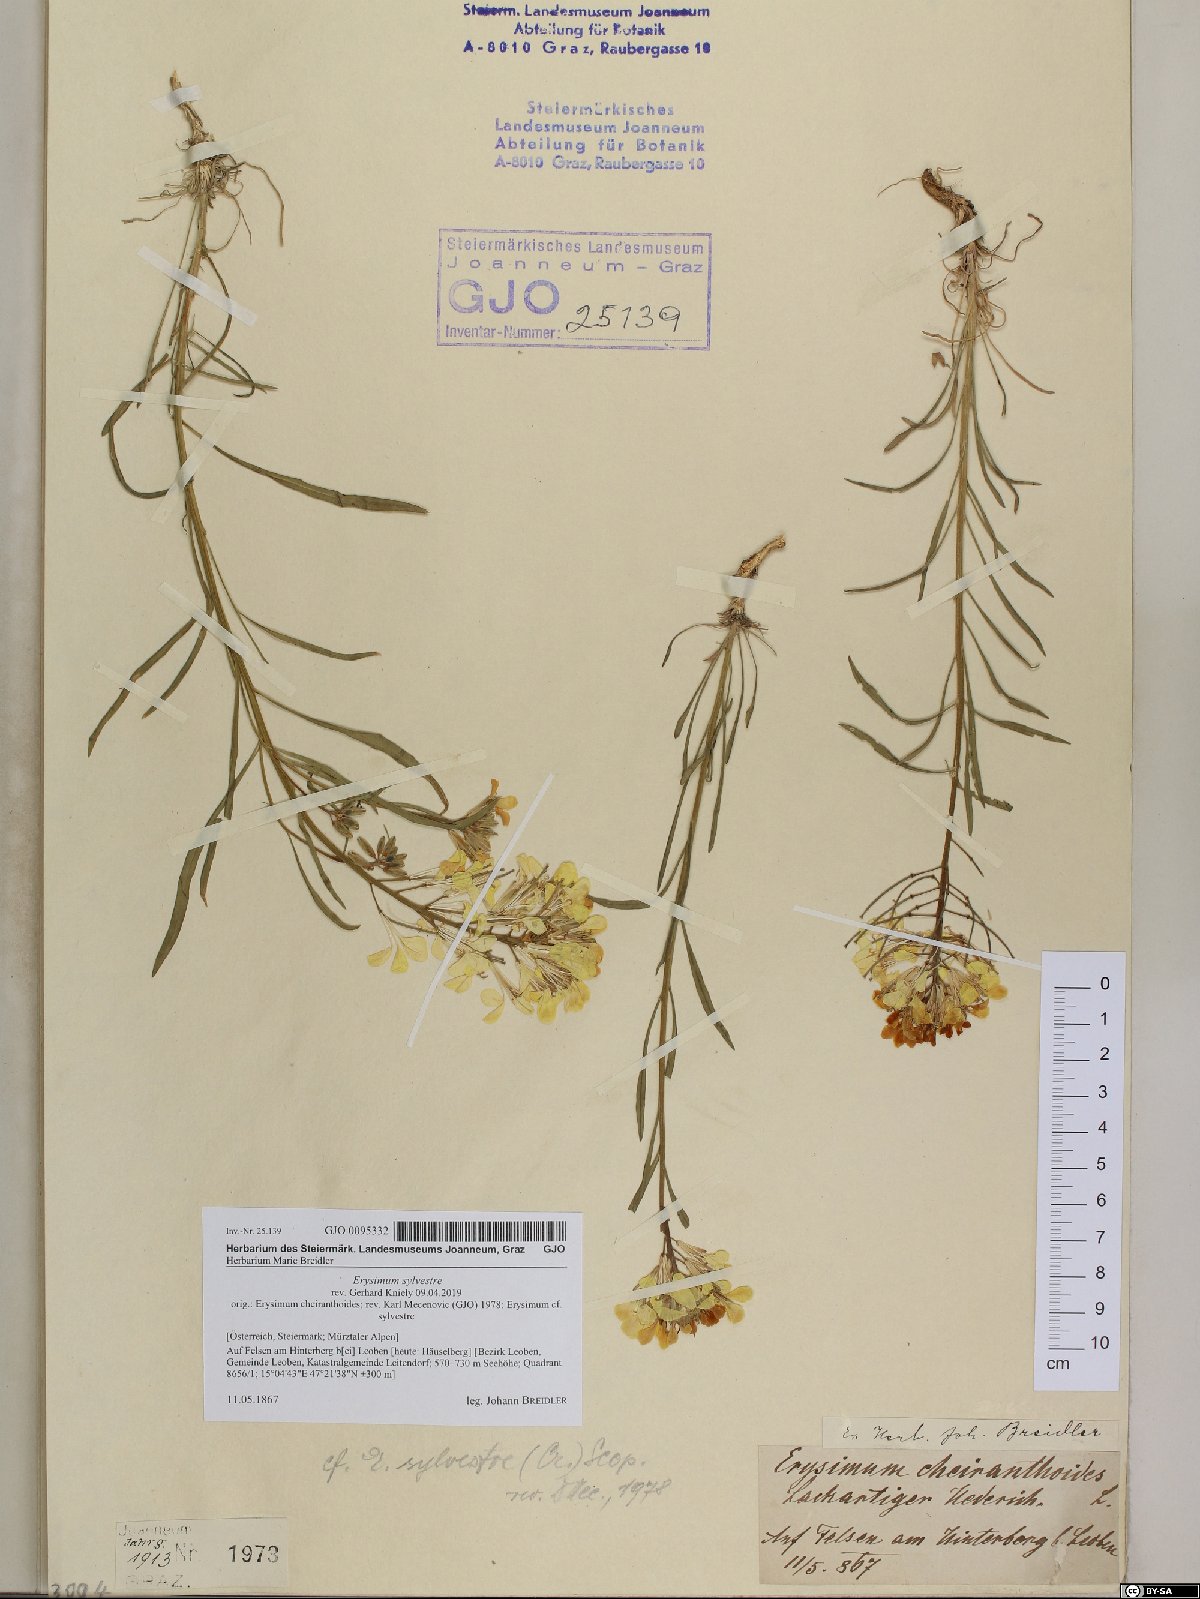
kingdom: Plantae
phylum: Tracheophyta
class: Magnoliopsida
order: Brassicales
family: Brassicaceae
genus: Erysimum
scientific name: Erysimum sylvestre
